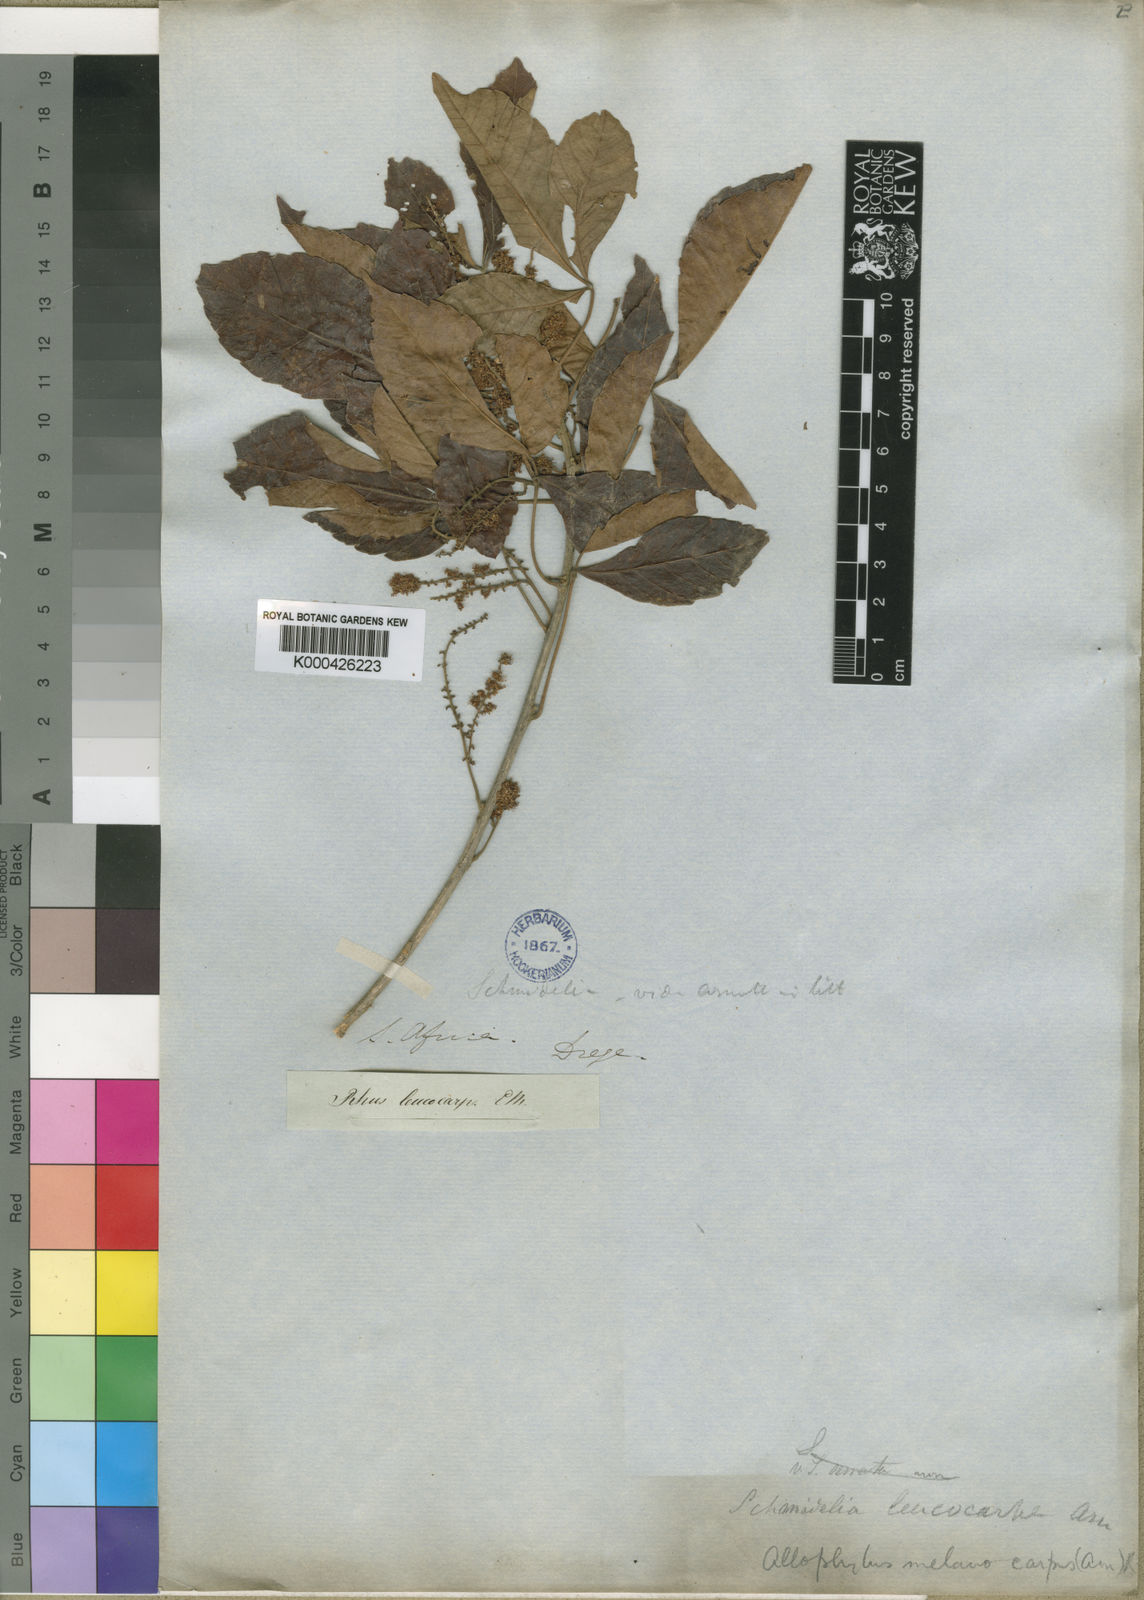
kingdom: Plantae
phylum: Tracheophyta
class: Magnoliopsida
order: Sapindales
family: Sapindaceae
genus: Allophylus
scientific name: Allophylus africanus
